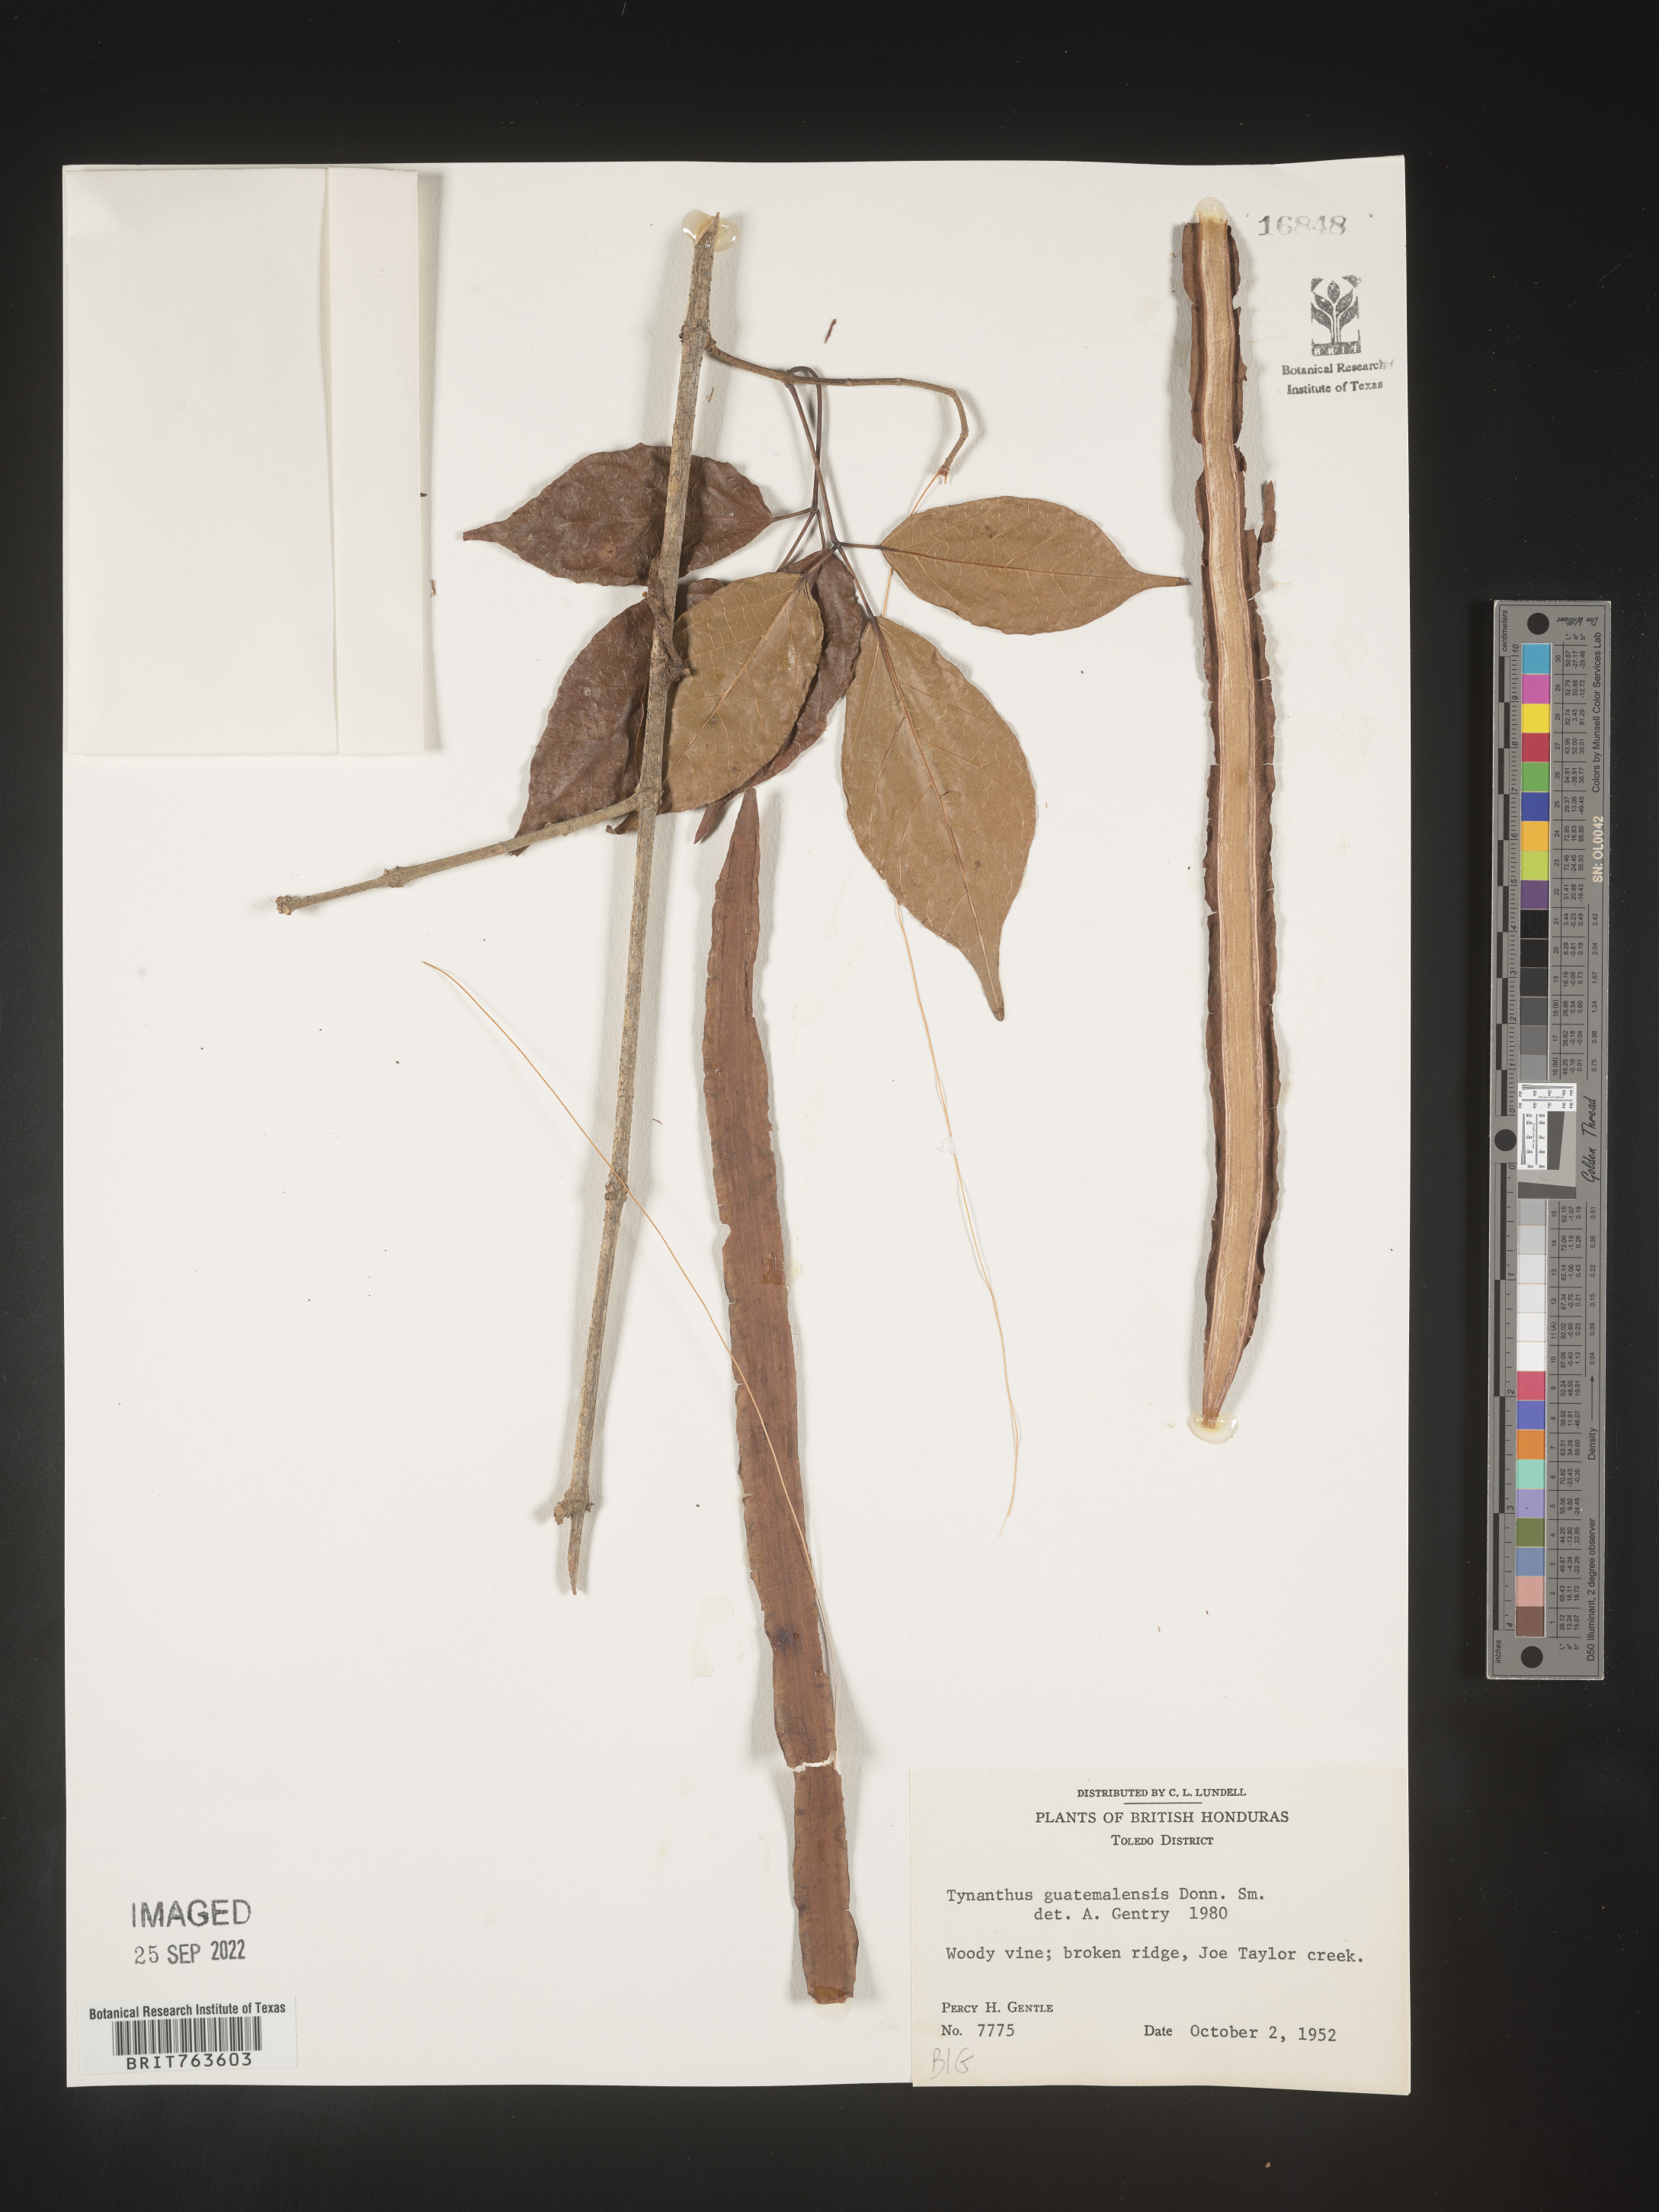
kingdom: Plantae
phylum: Tracheophyta
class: Magnoliopsida
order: Lamiales
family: Bignoniaceae
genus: Tynanthus
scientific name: Tynanthus
